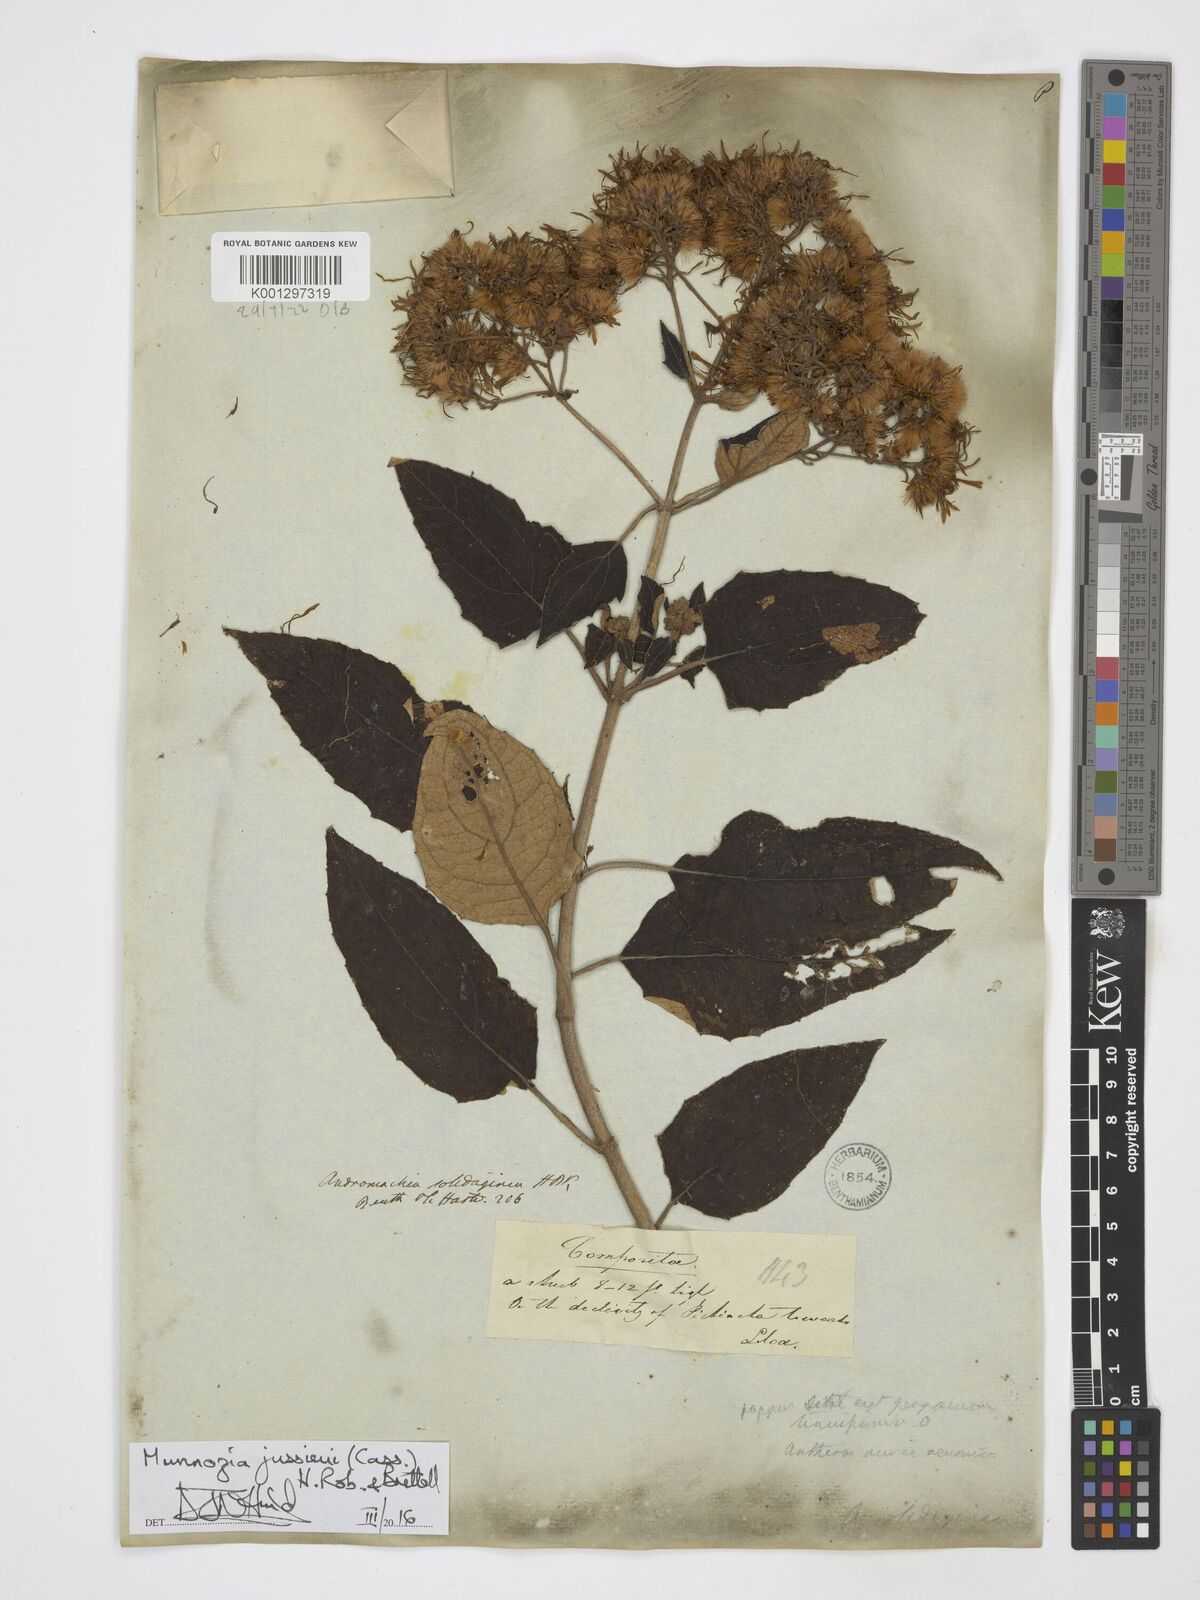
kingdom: Plantae
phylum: Tracheophyta
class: Magnoliopsida
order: Asterales
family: Asteraceae
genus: Munnozia
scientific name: Munnozia jussieui
